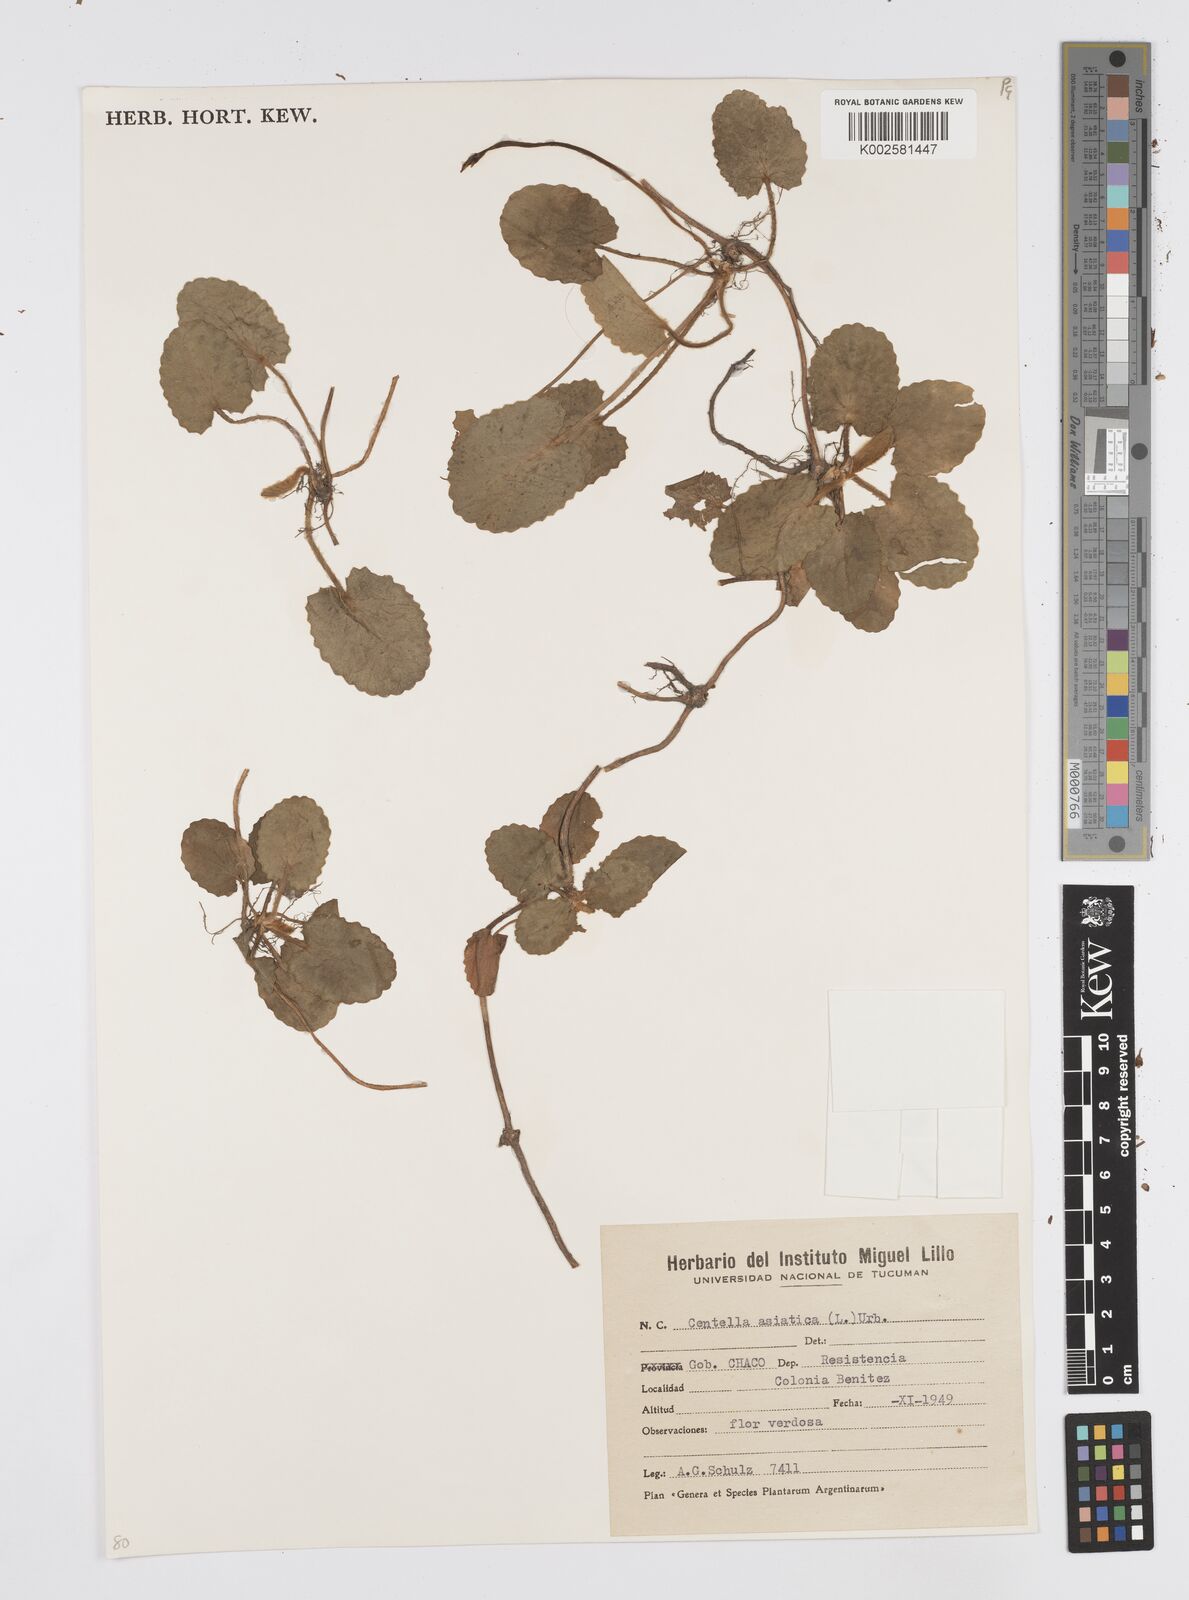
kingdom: Plantae
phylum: Tracheophyta
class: Magnoliopsida
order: Apiales
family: Apiaceae
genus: Centella
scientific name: Centella asiatica
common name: Spadeleaf
